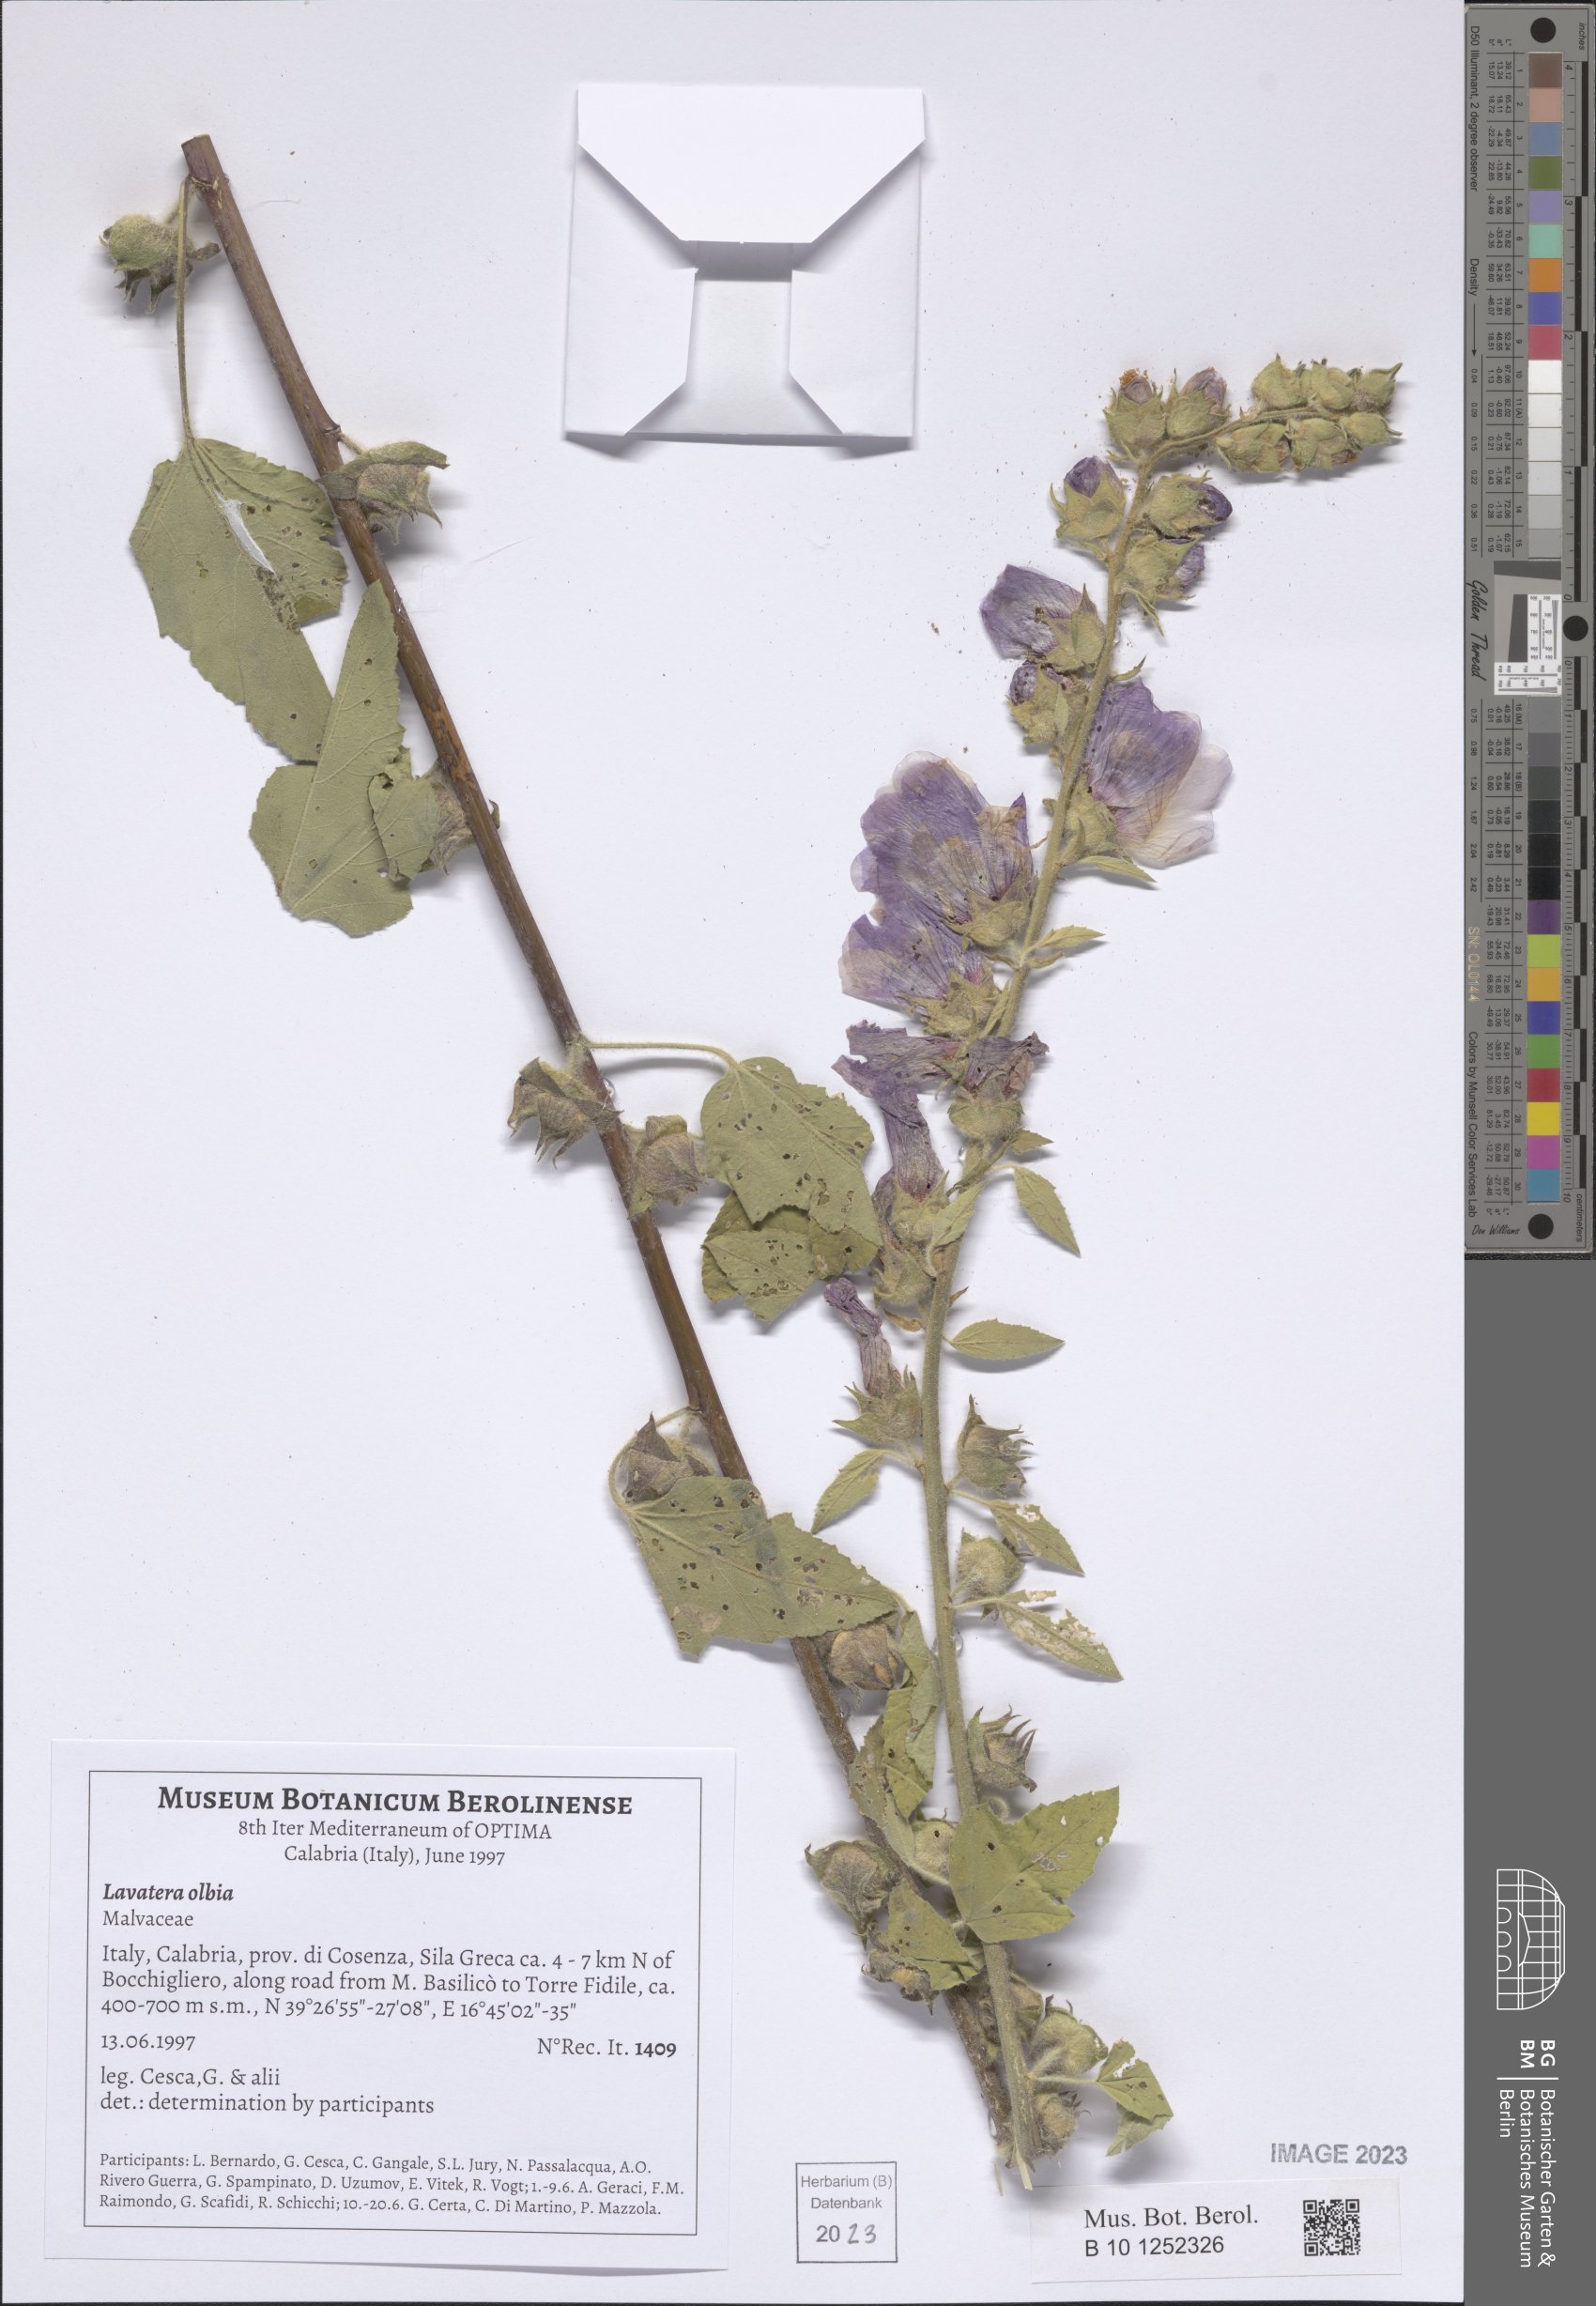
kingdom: Plantae
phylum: Tracheophyta
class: Magnoliopsida
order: Malvales
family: Malvaceae
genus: Malva
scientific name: Malva olbia
